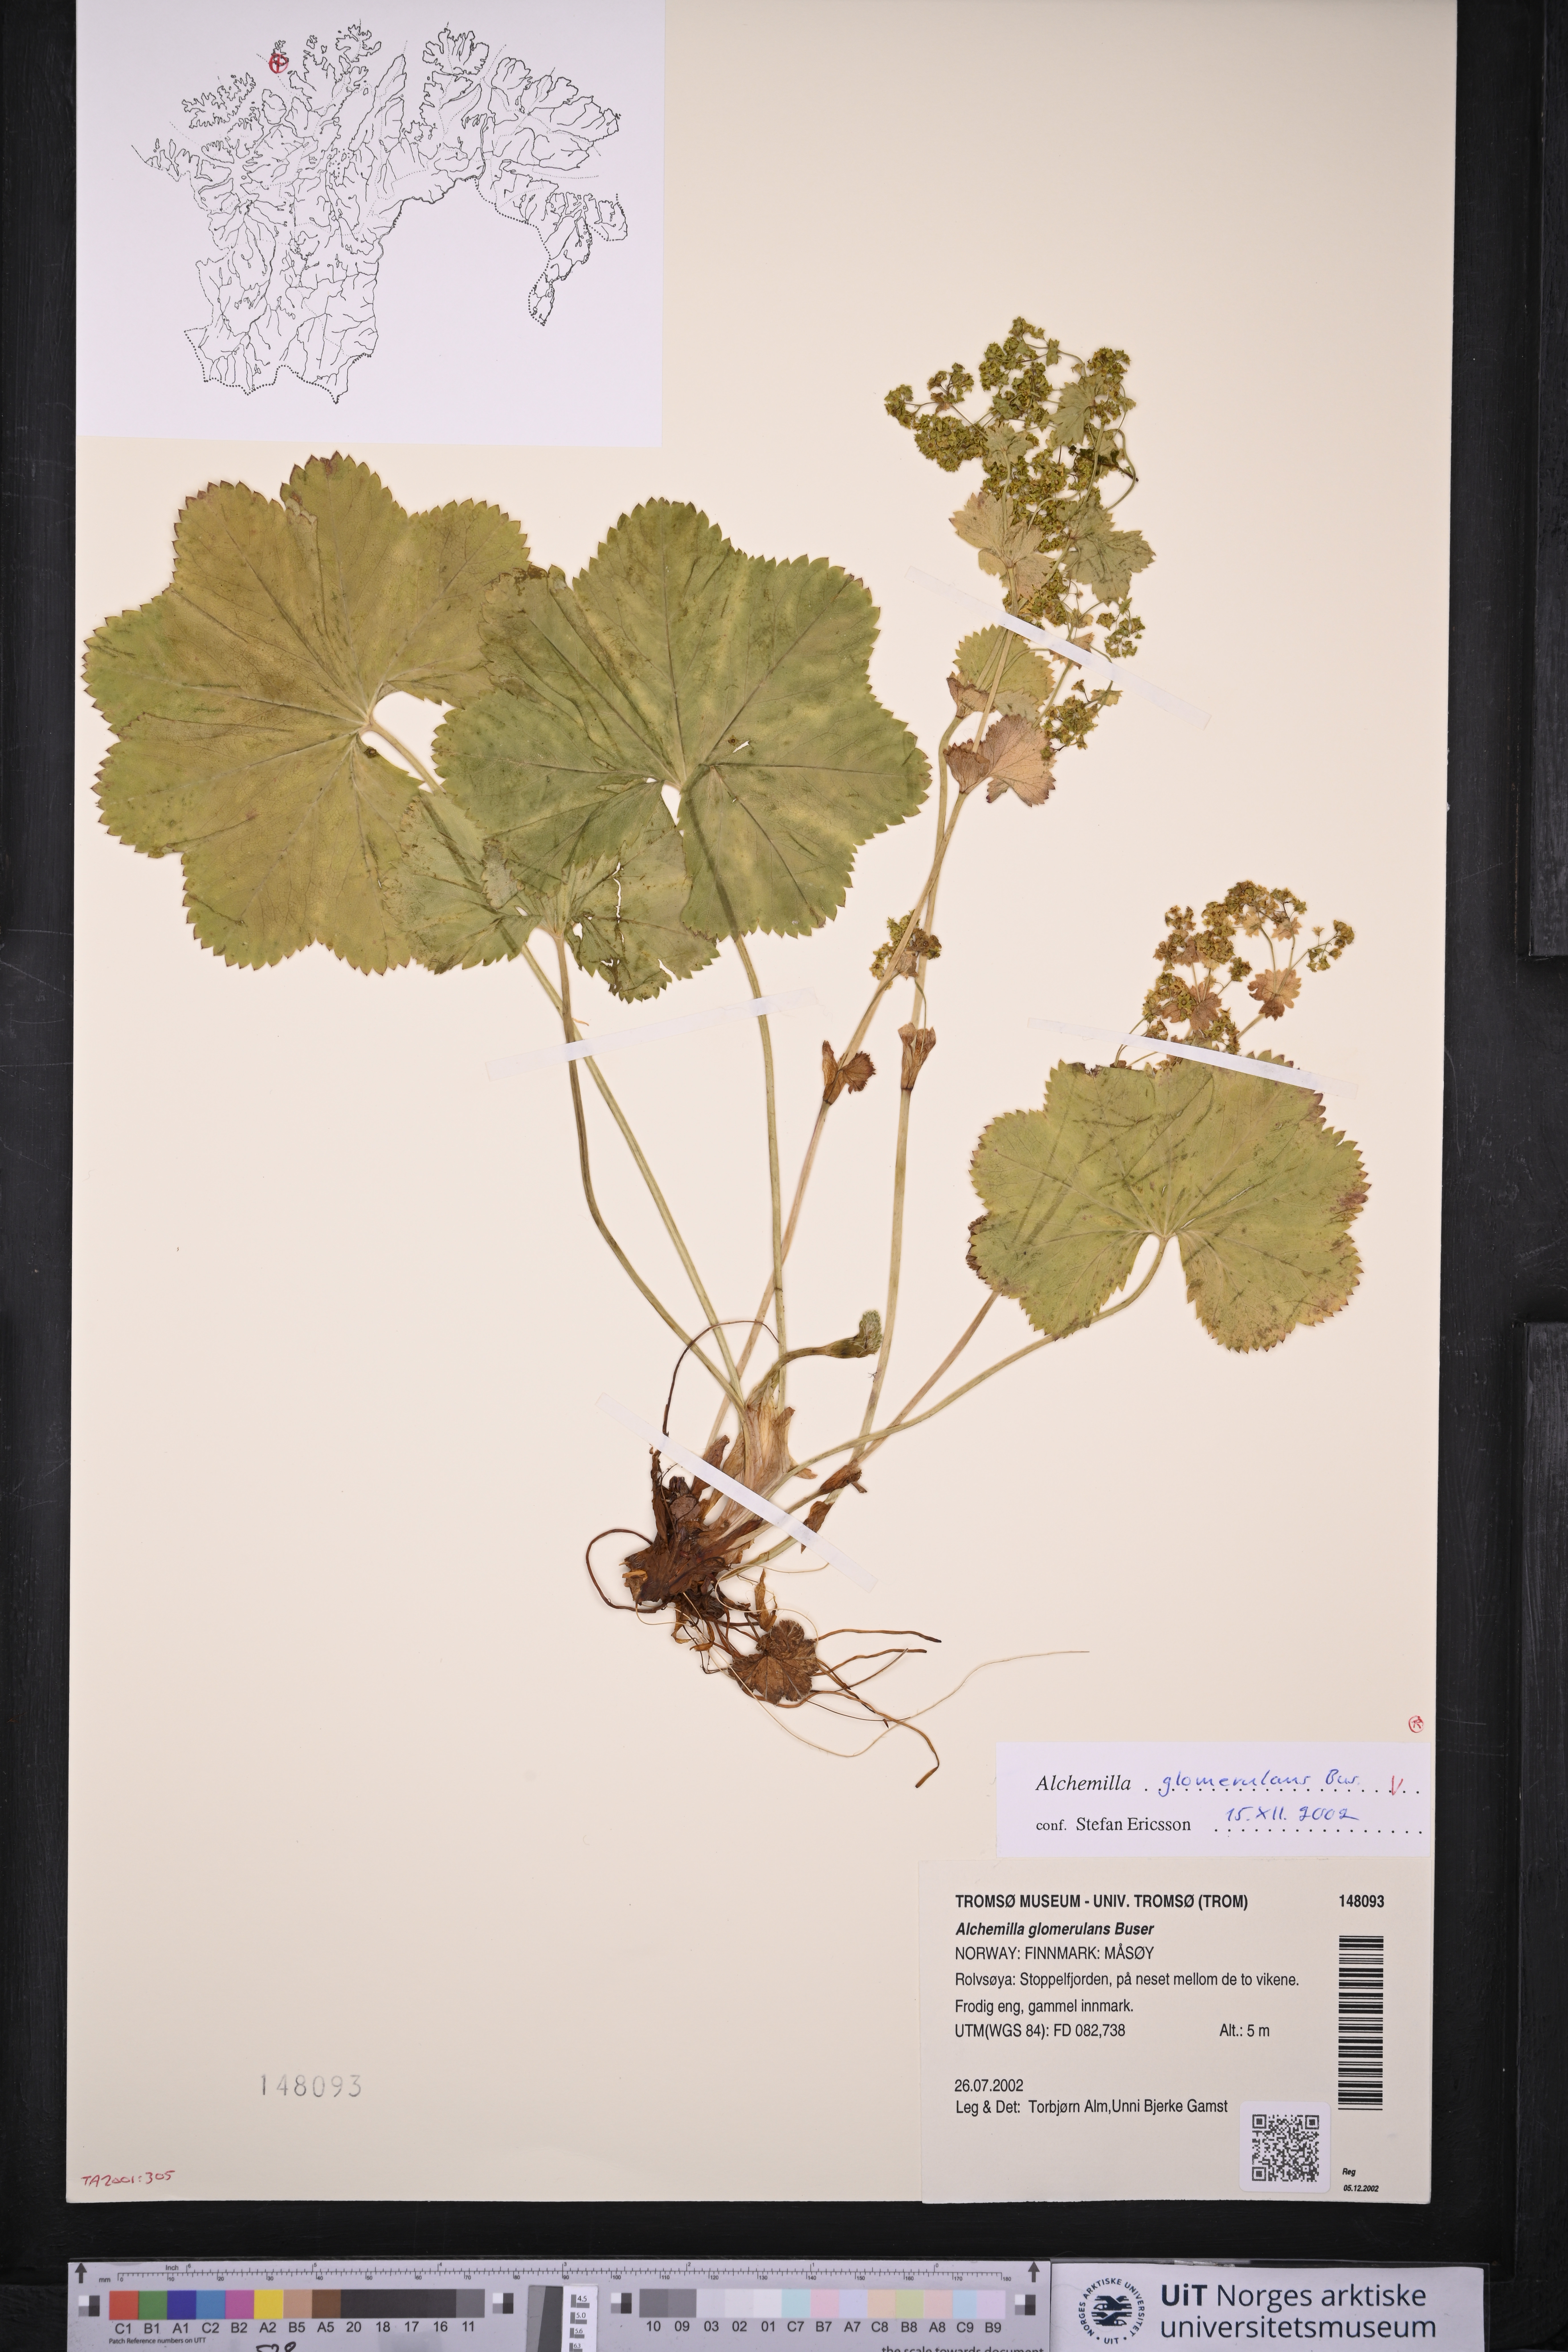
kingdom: Plantae
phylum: Tracheophyta
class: Magnoliopsida
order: Rosales
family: Rosaceae
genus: Alchemilla
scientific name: Alchemilla glomerulans
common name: Clustered lady's mantle
